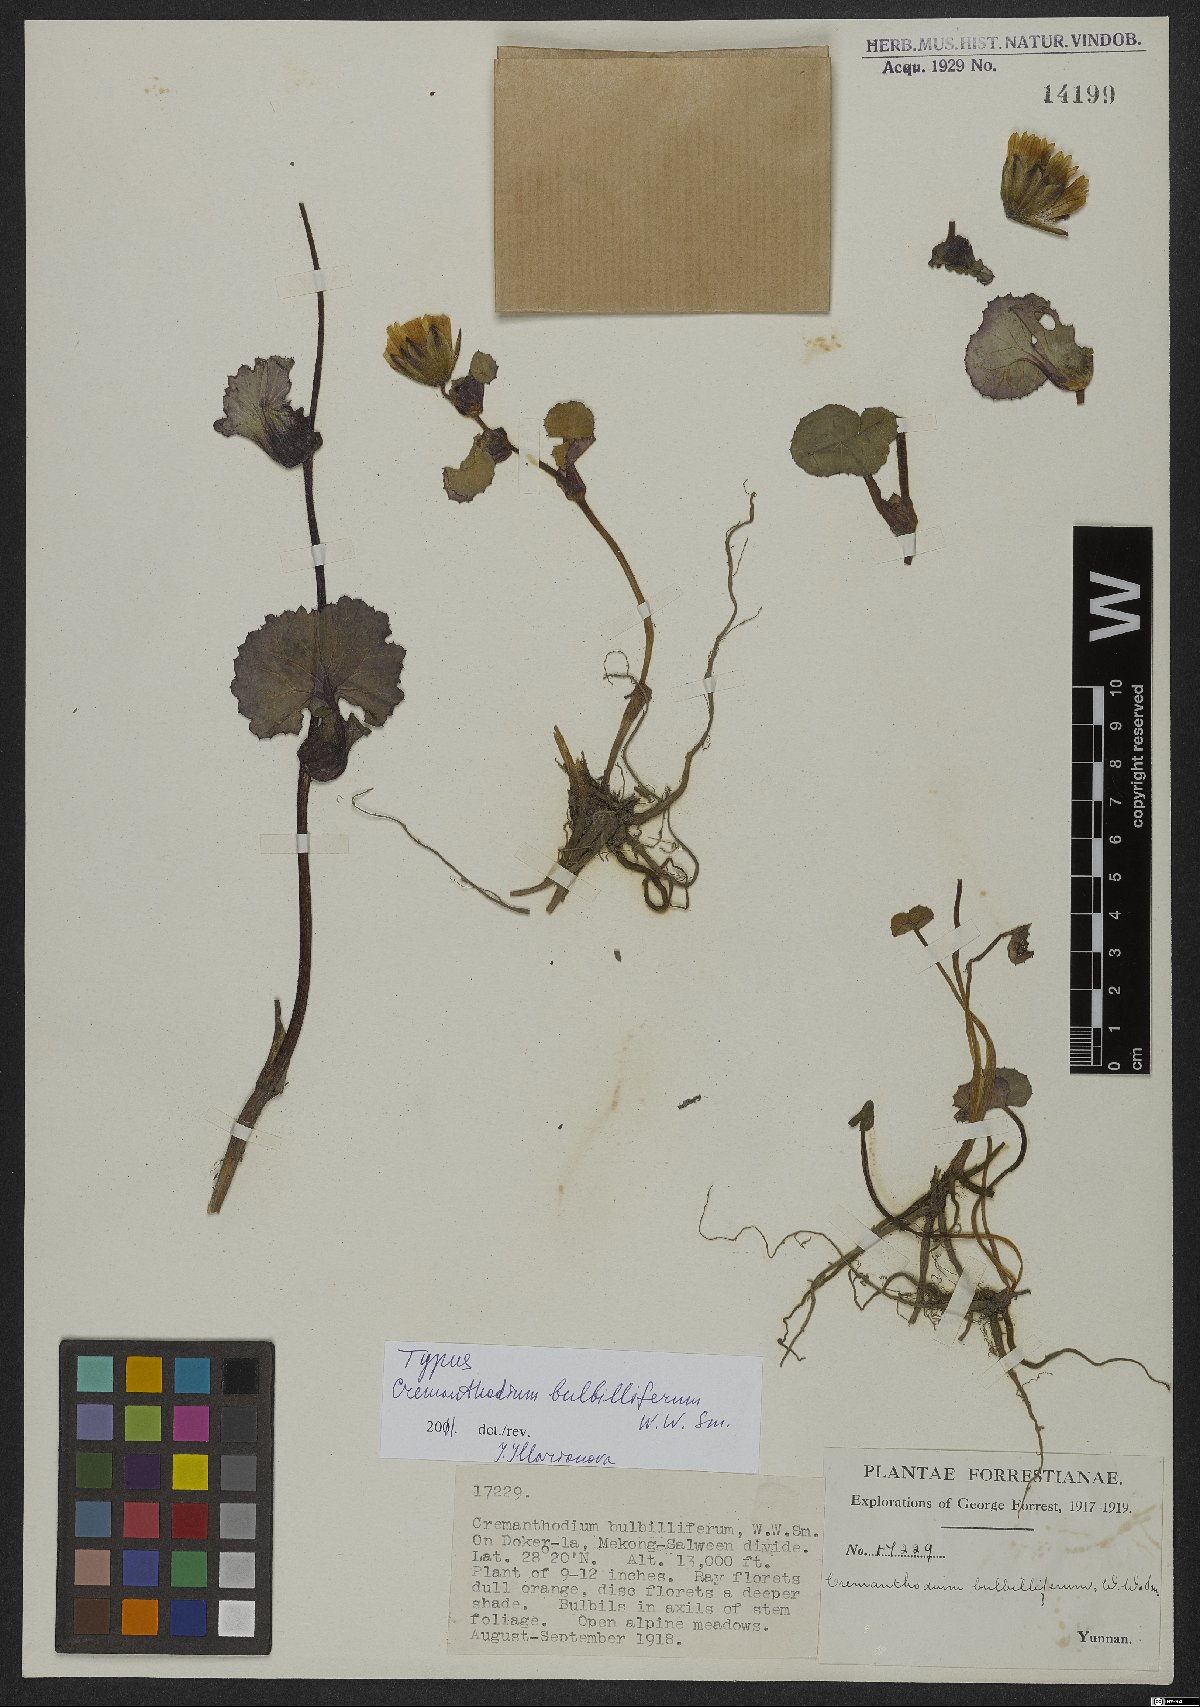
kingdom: Plantae
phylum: Tracheophyta
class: Magnoliopsida
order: Asterales
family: Asteraceae
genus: Cremanthodium
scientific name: Cremanthodium bulbilliferum
